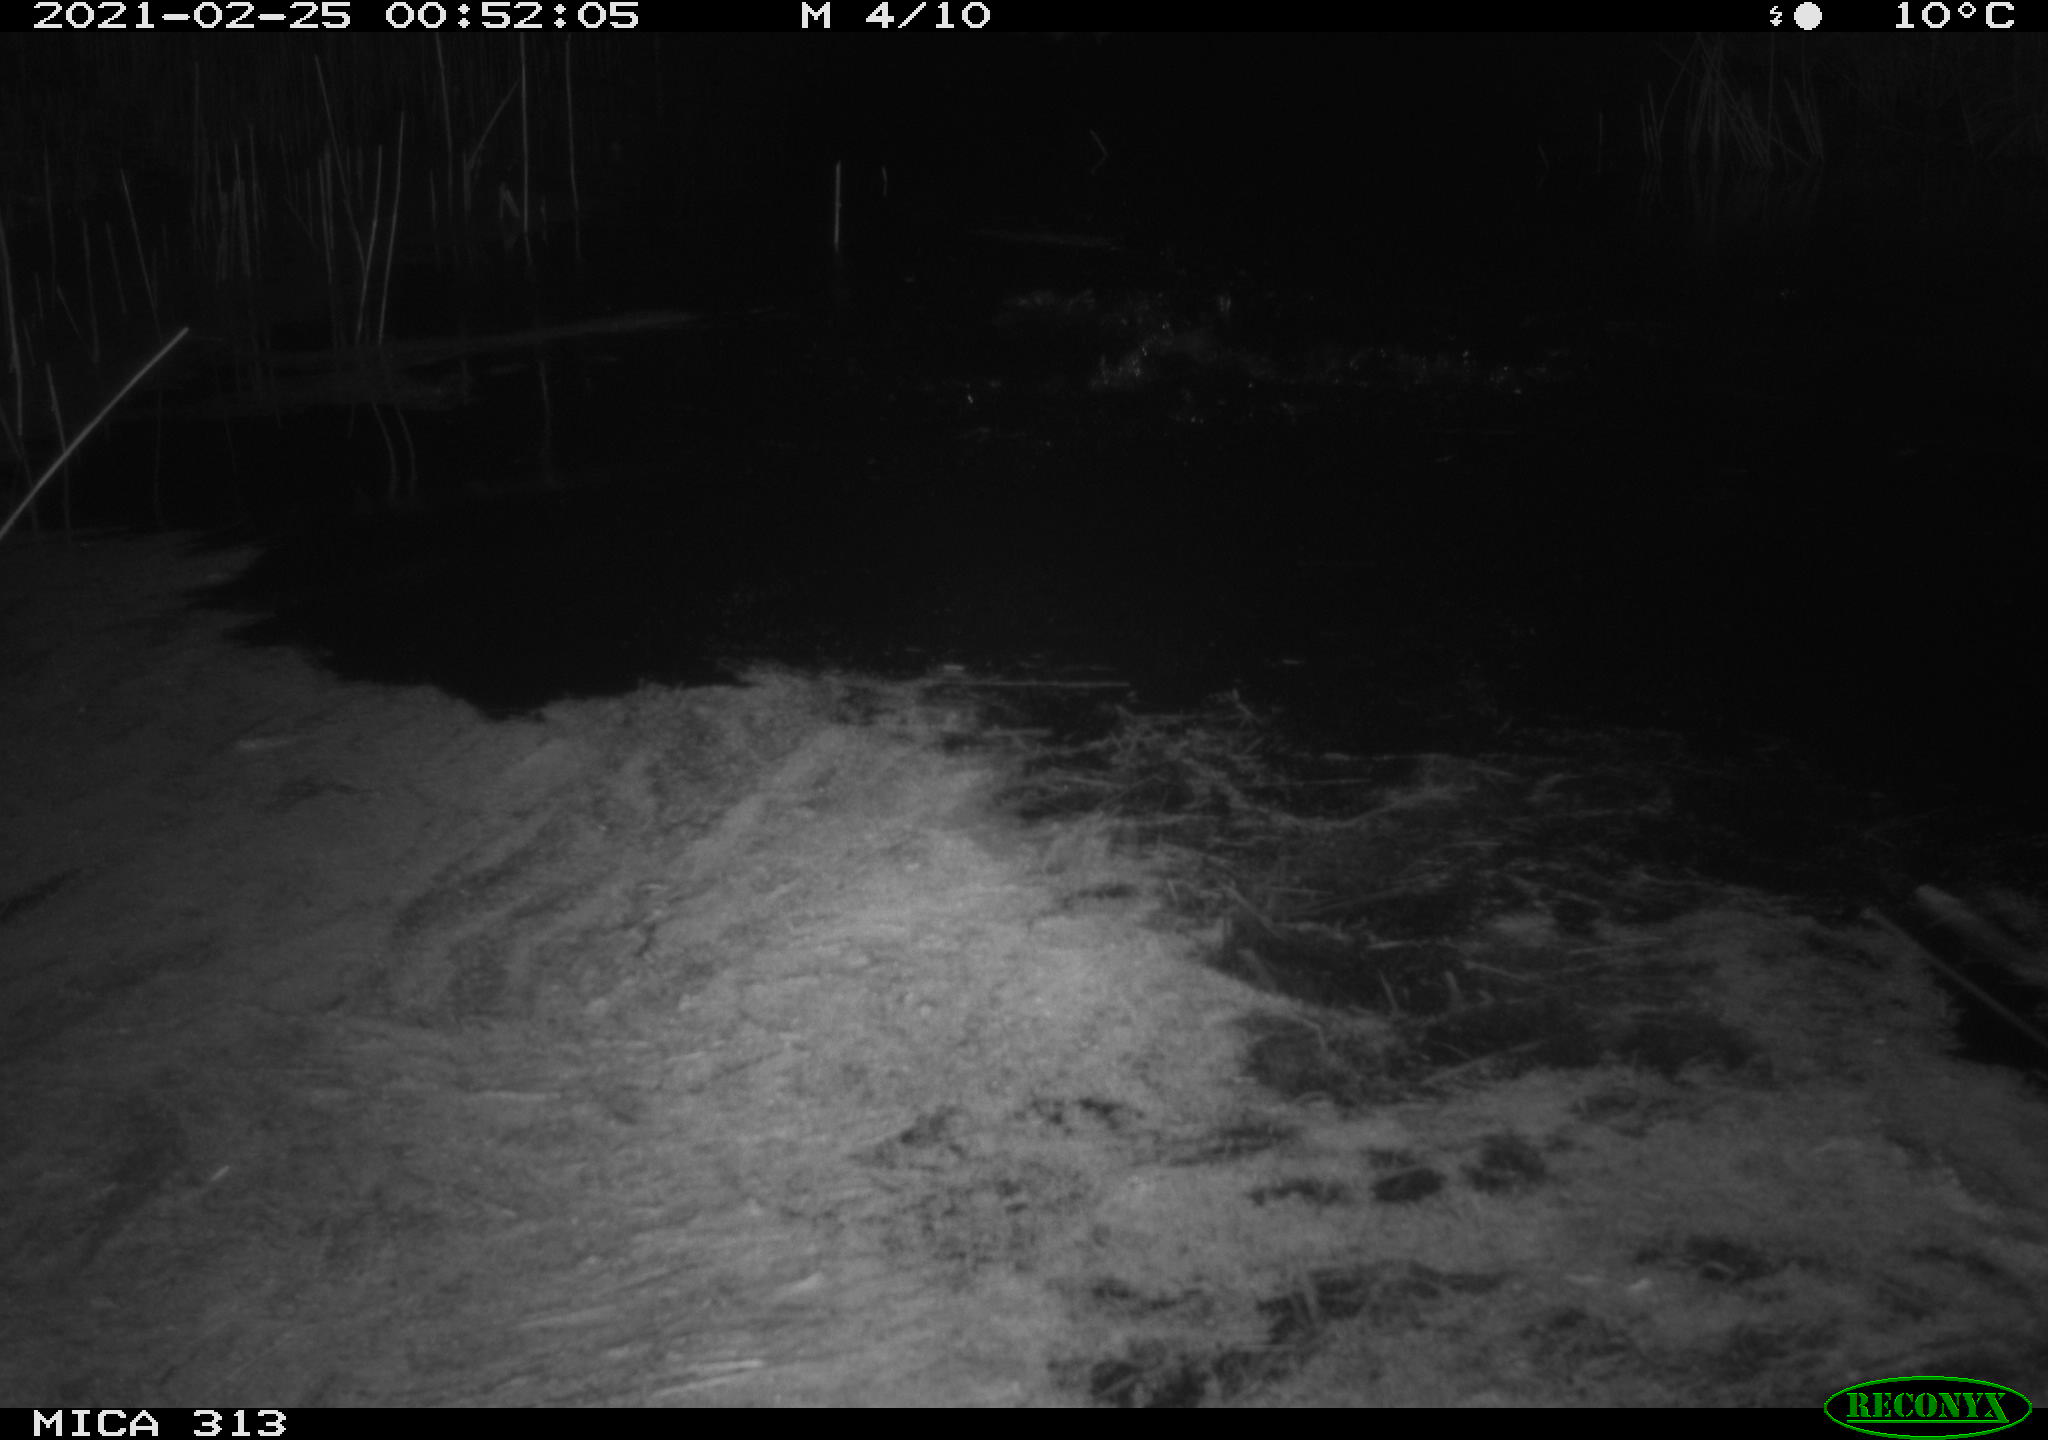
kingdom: Animalia
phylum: Chordata
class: Aves
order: Anseriformes
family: Anatidae
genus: Anas
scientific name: Anas
